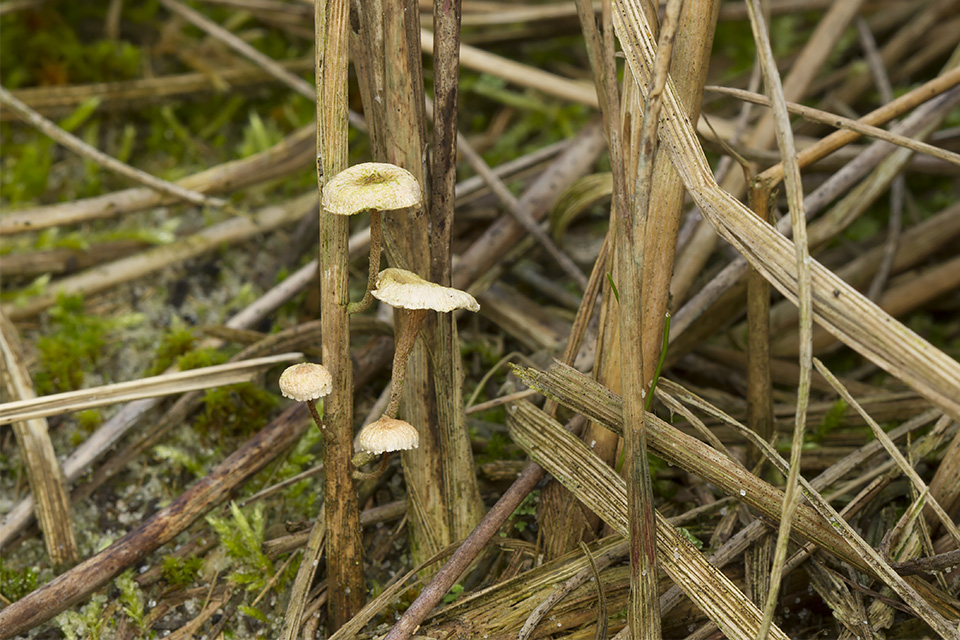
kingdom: Fungi
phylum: Basidiomycota
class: Agaricomycetes
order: Agaricales
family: Marasmiaceae
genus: Crinipellis
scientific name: Crinipellis scabella
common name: børstefod
